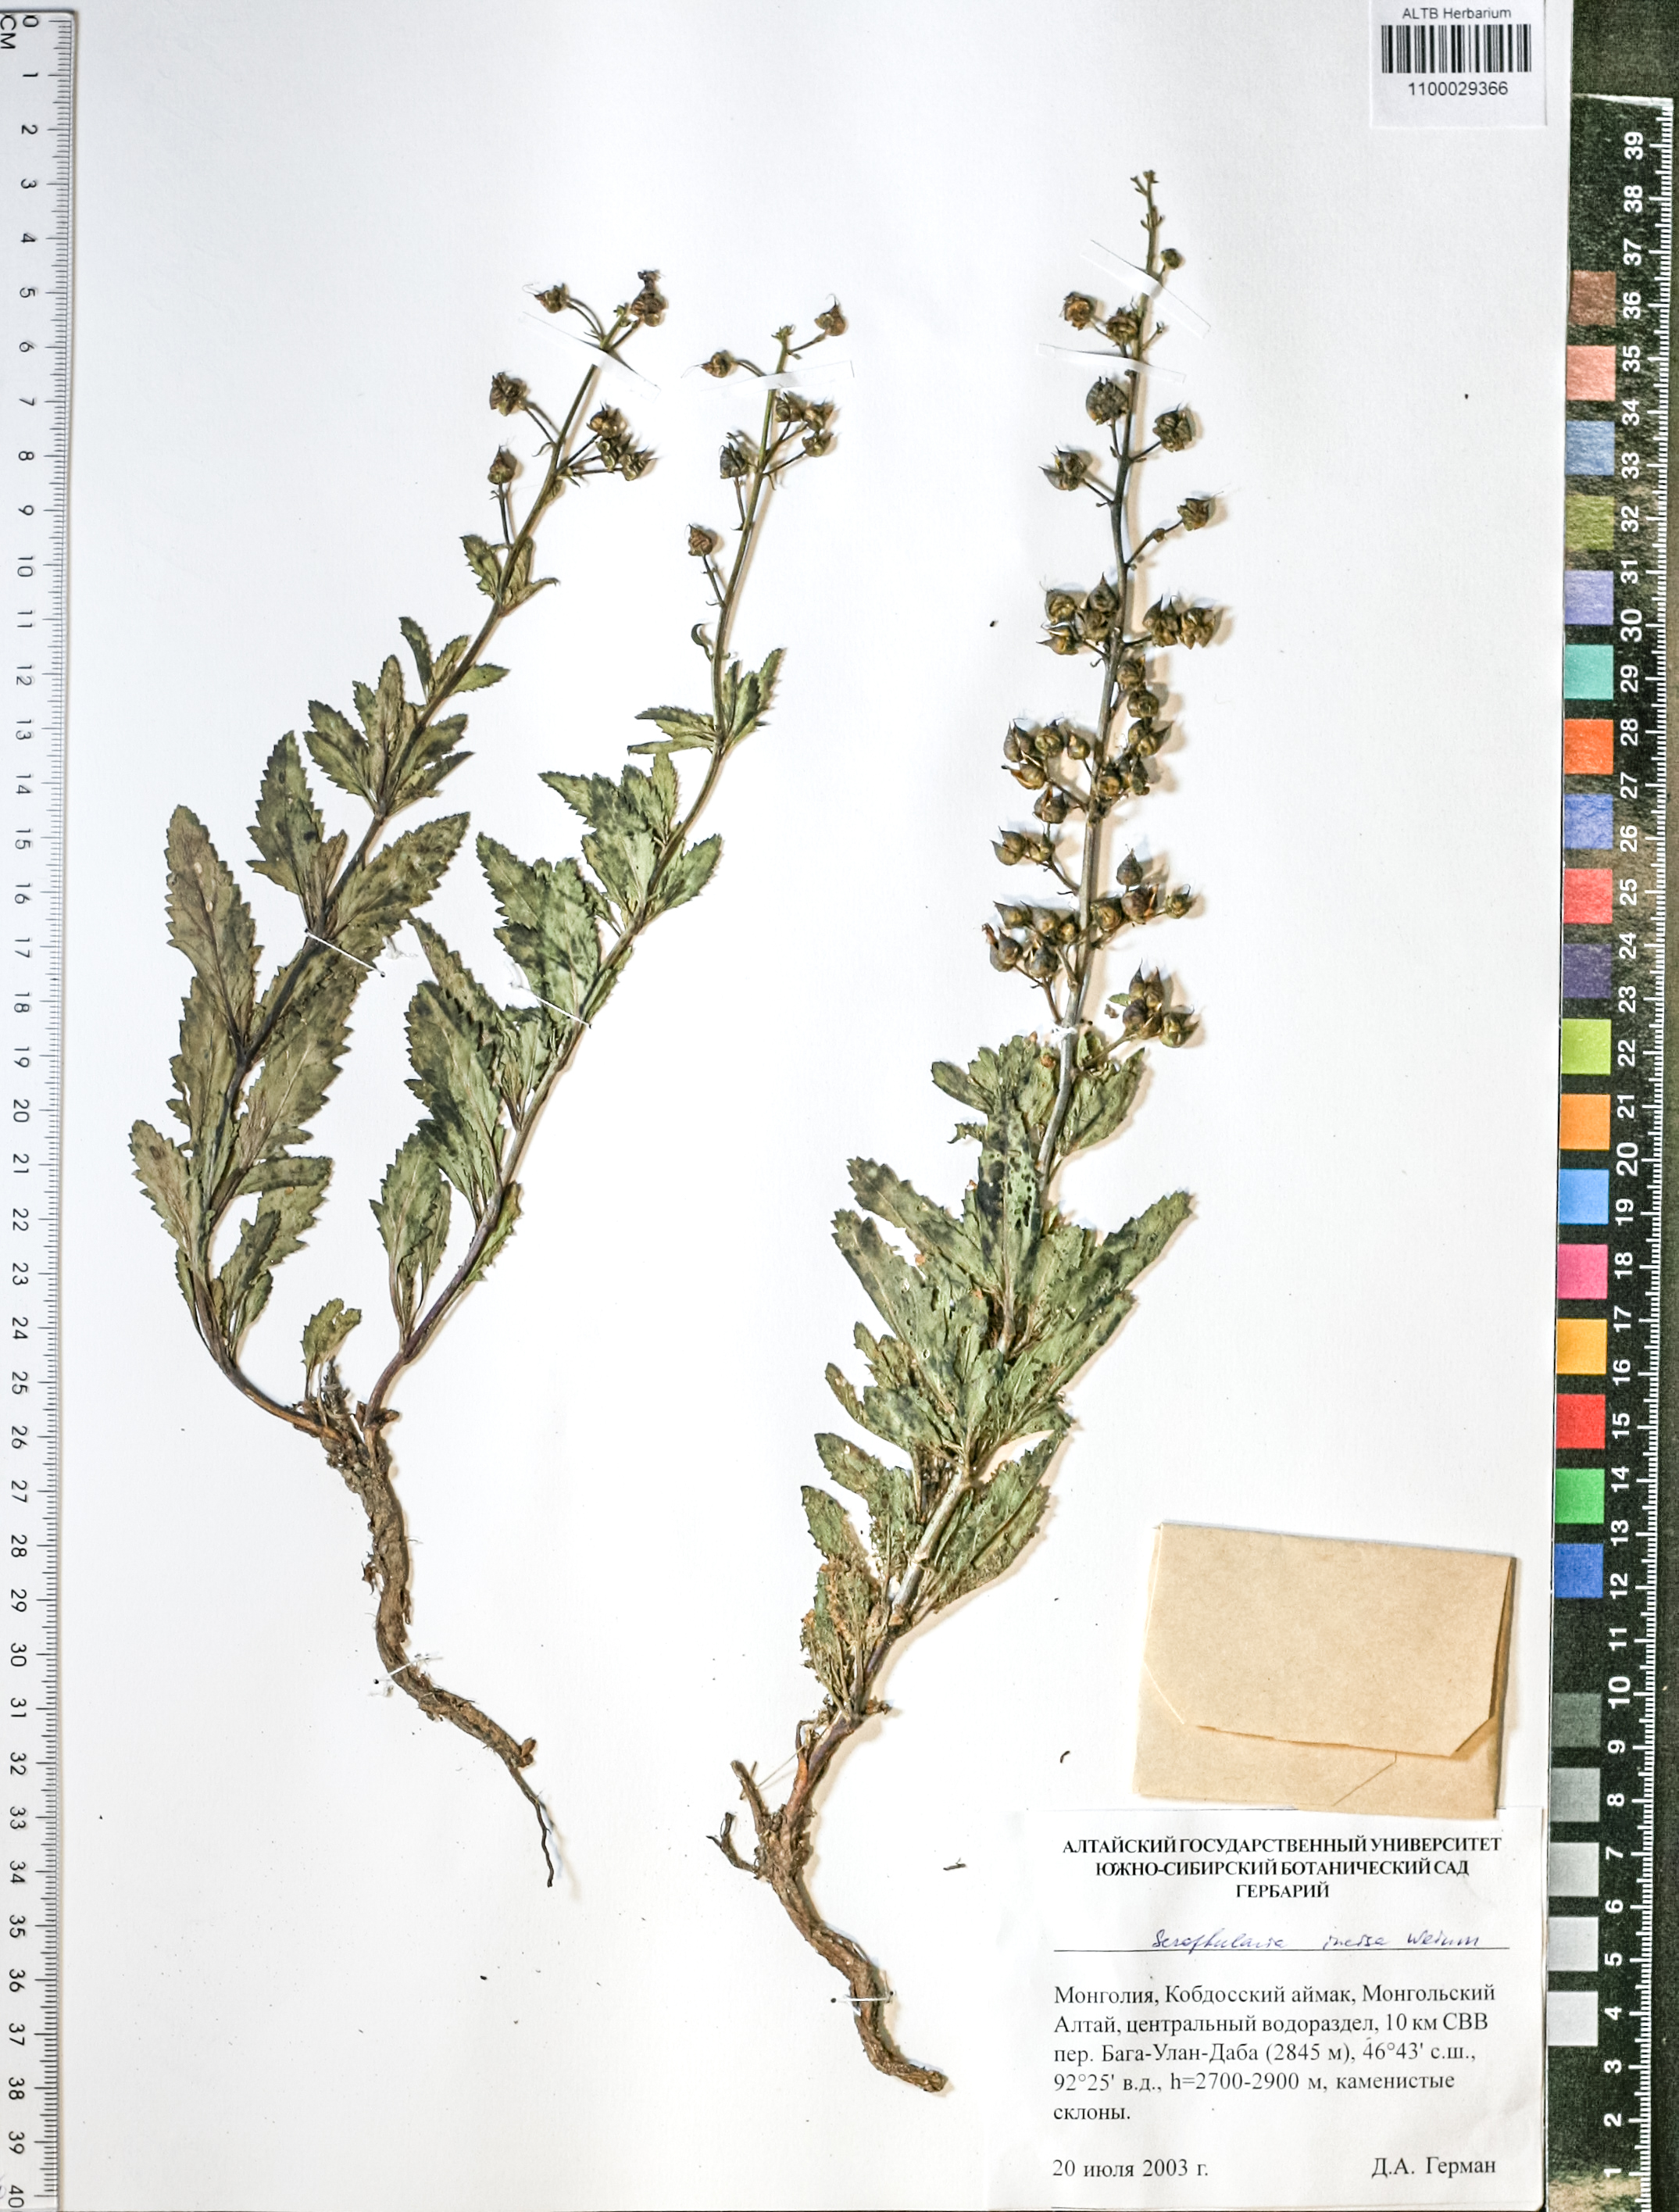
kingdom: Plantae
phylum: Tracheophyta
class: Magnoliopsida
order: Lamiales
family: Scrophulariaceae
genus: Scrophularia
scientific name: Scrophularia incisa
